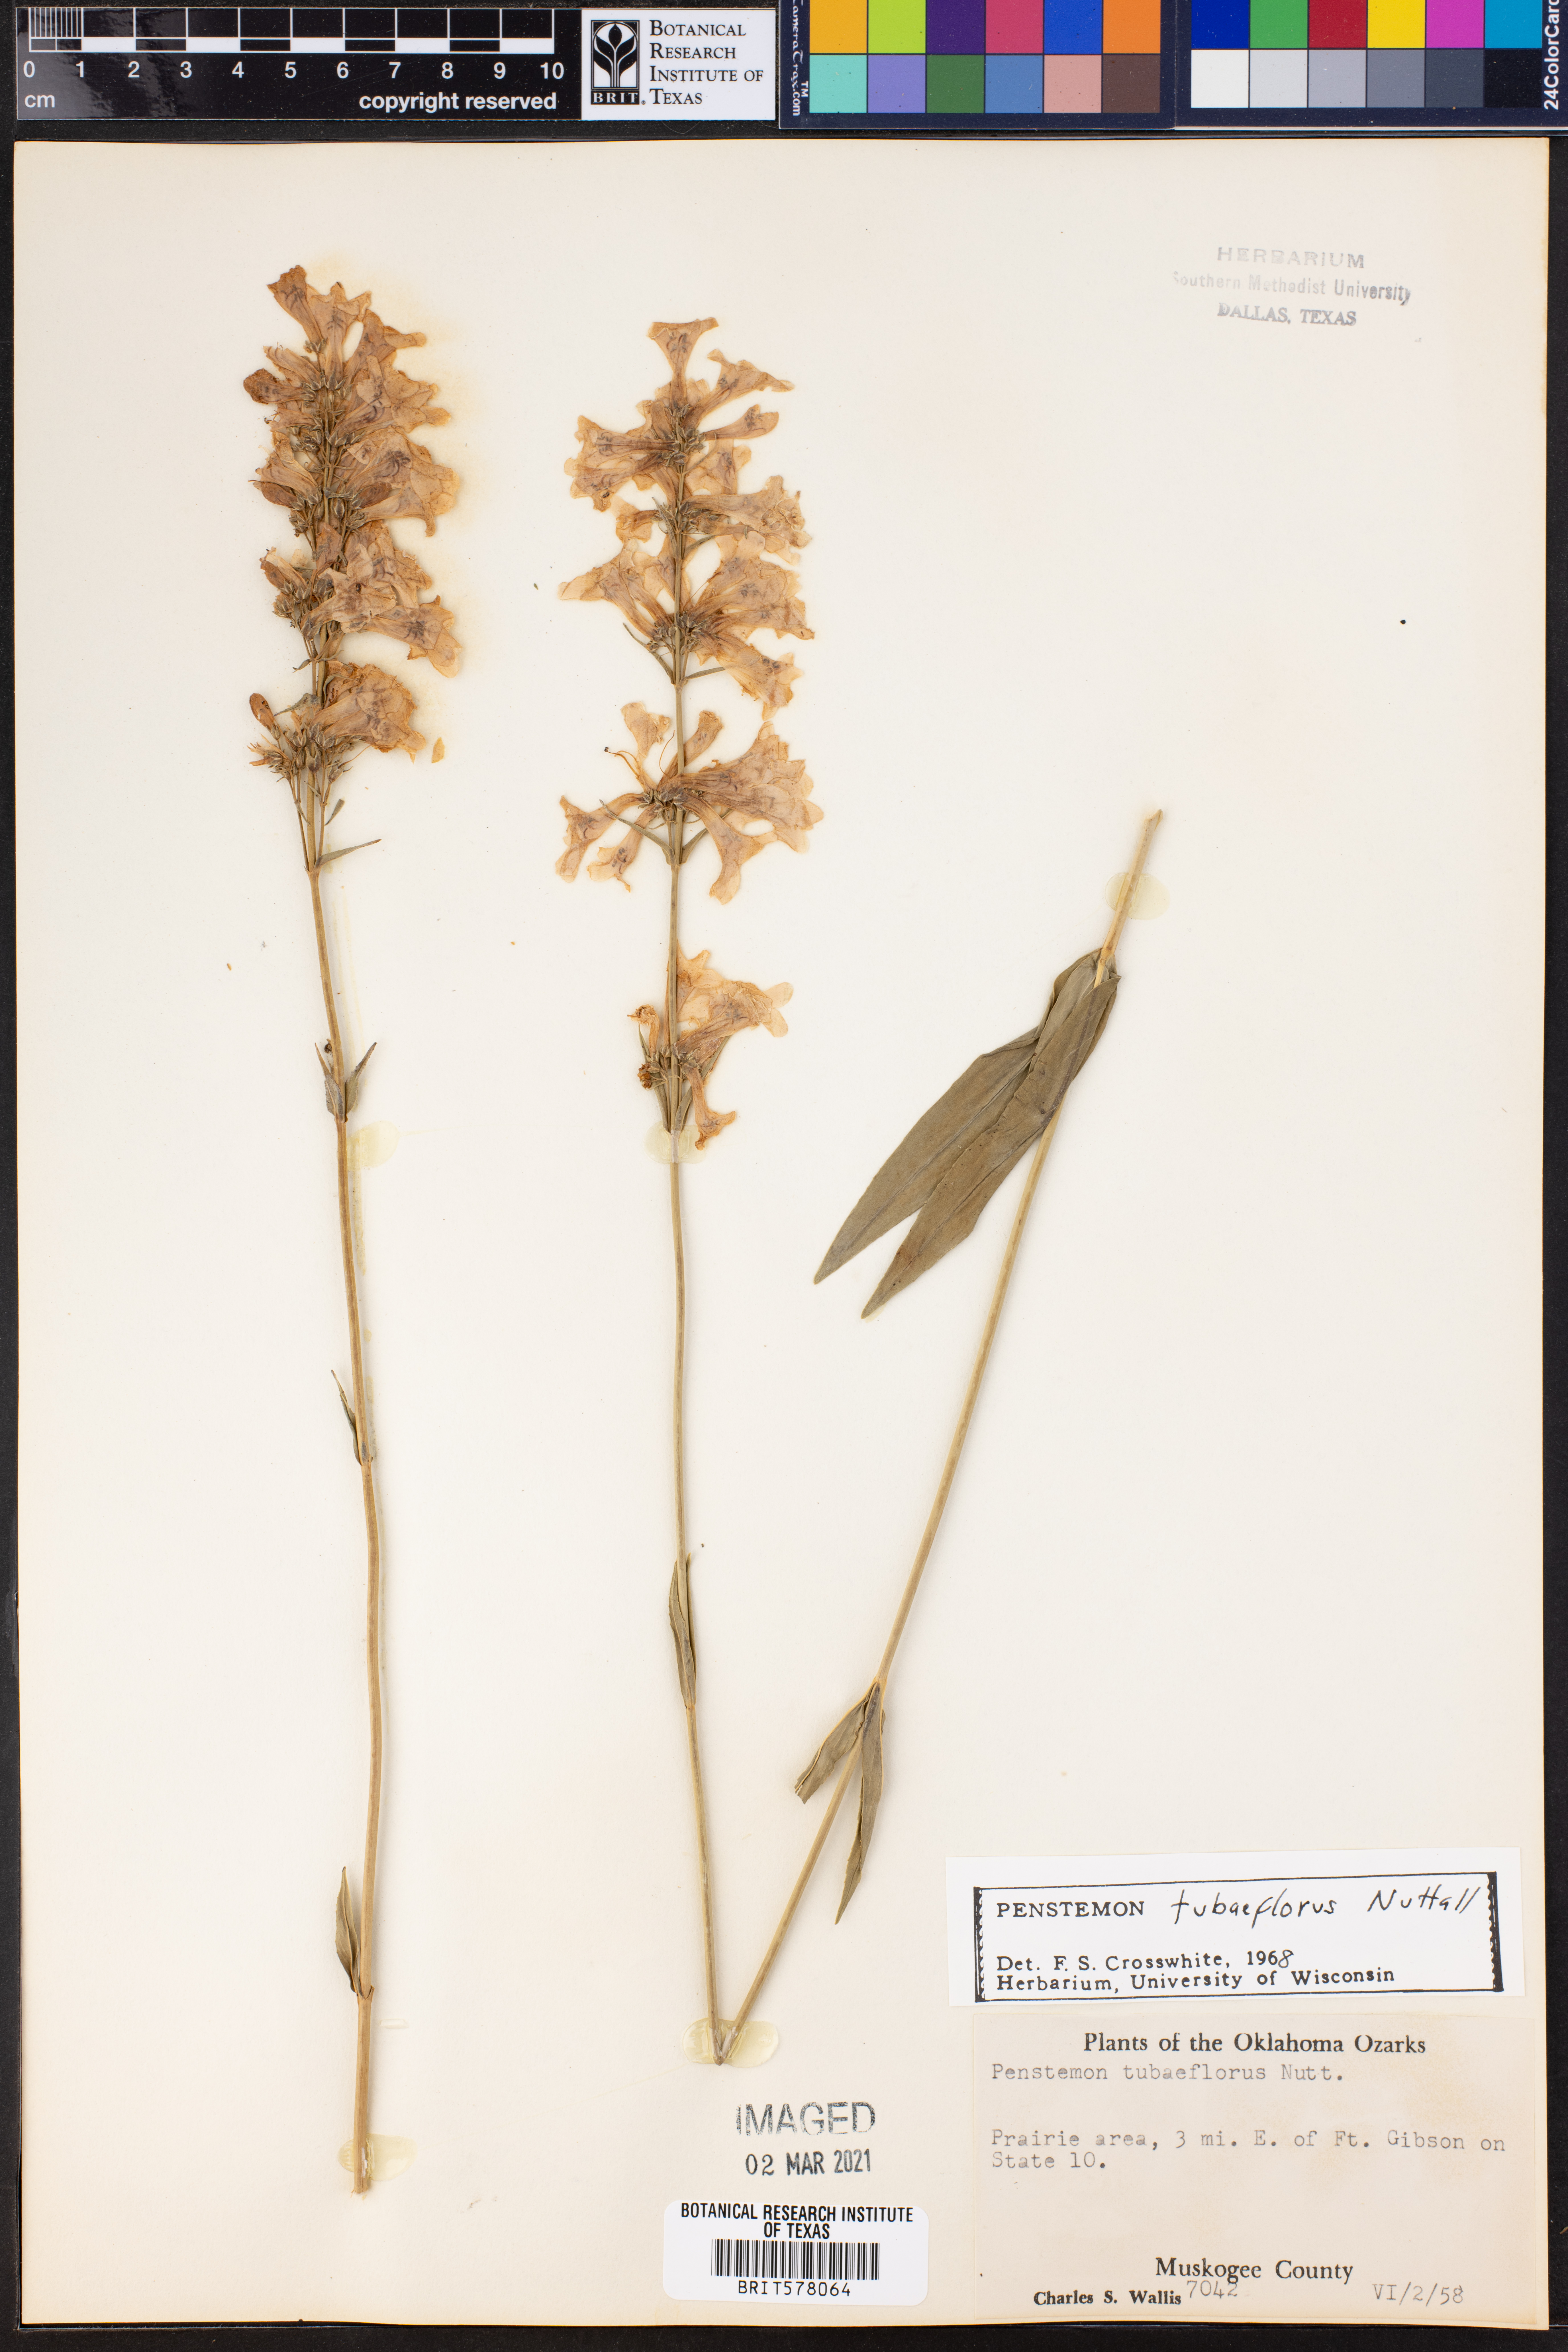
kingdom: Plantae
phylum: Tracheophyta
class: Magnoliopsida
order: Lamiales
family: Plantaginaceae
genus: Penstemon
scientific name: Penstemon tubaeflorus
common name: White wand beardtongue
